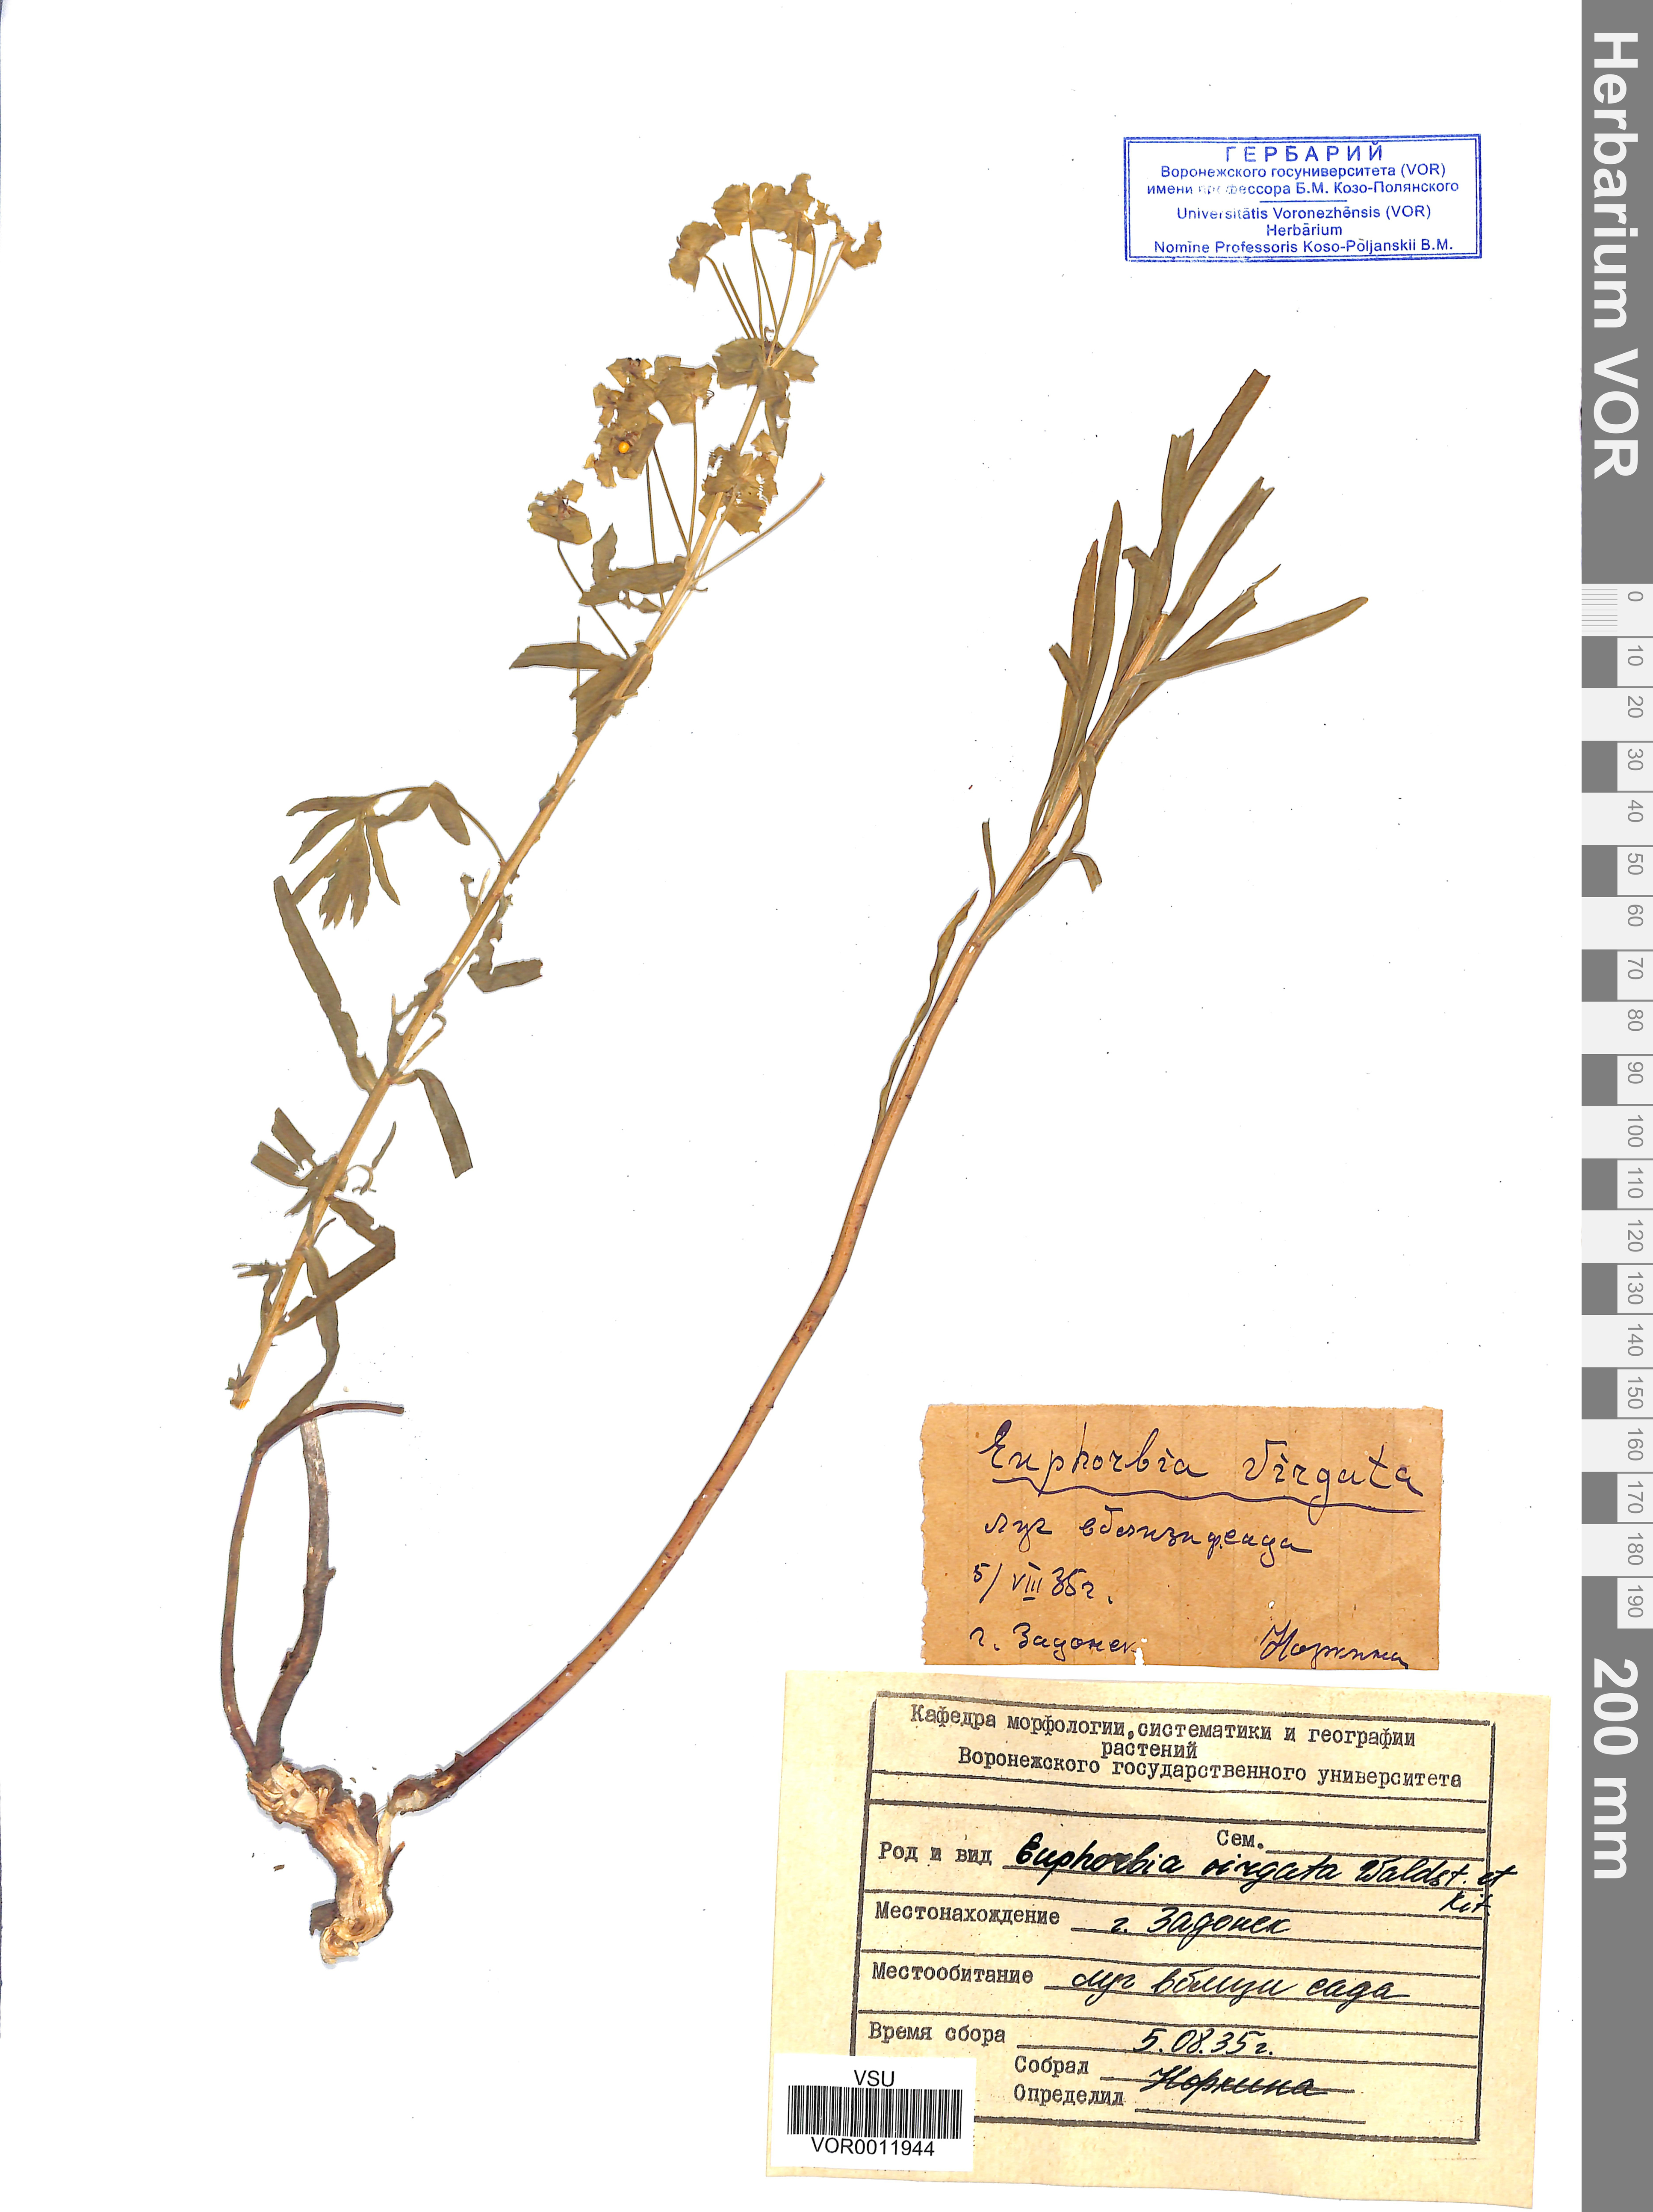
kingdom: Plantae
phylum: Tracheophyta
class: Magnoliopsida
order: Malpighiales
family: Euphorbiaceae
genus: Euphorbia
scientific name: Euphorbia virgata
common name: Leafy spurge
